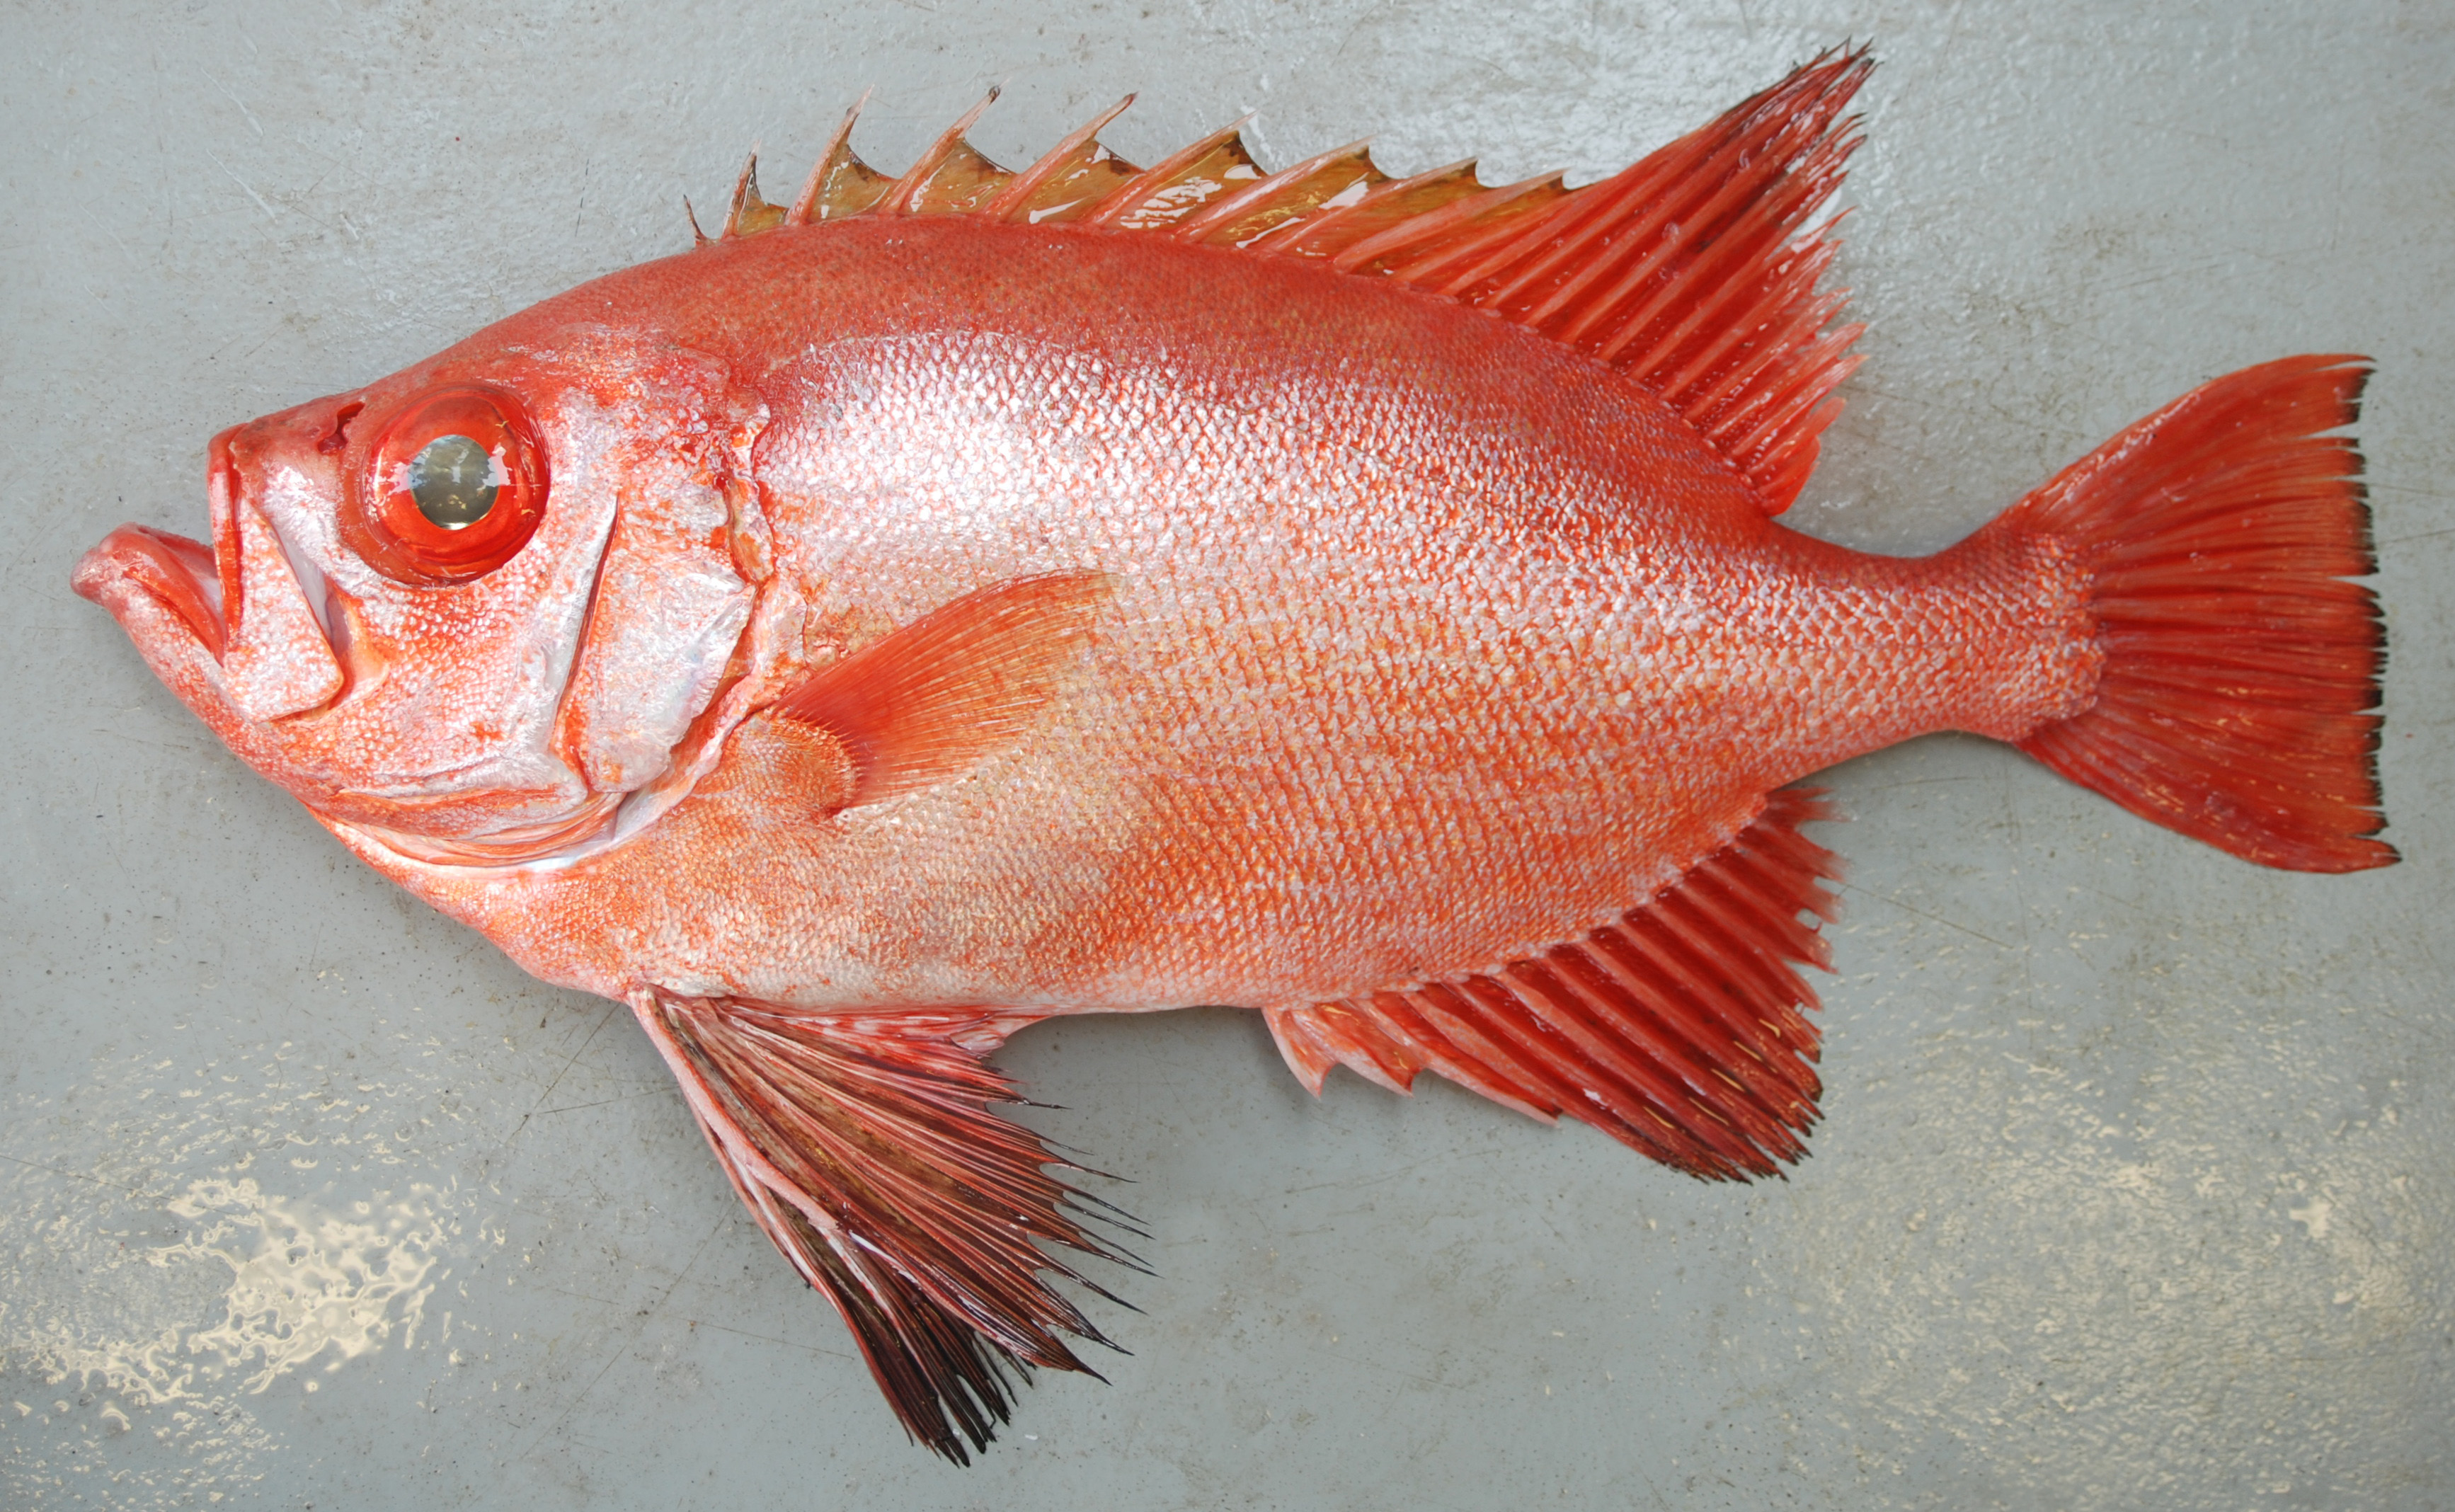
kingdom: Animalia
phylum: Chordata
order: Perciformes
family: Priacanthidae
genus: Cookeolus
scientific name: Cookeolus japonicus
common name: Bulleye
